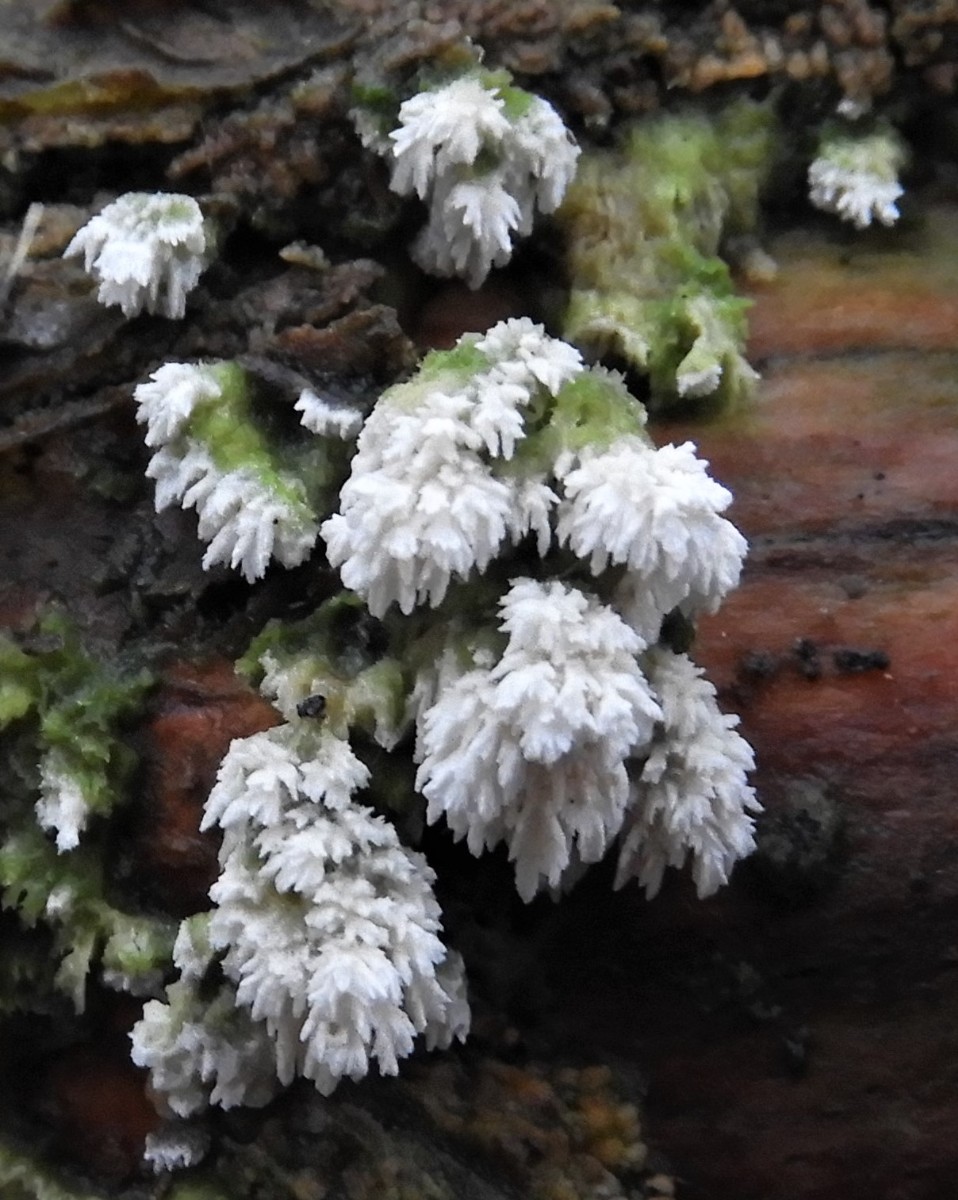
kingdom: Fungi
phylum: Basidiomycota
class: Agaricomycetes
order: Hymenochaetales
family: Schizoporaceae
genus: Schizopora
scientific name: Schizopora paradoxa
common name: hvid tandsvamp
